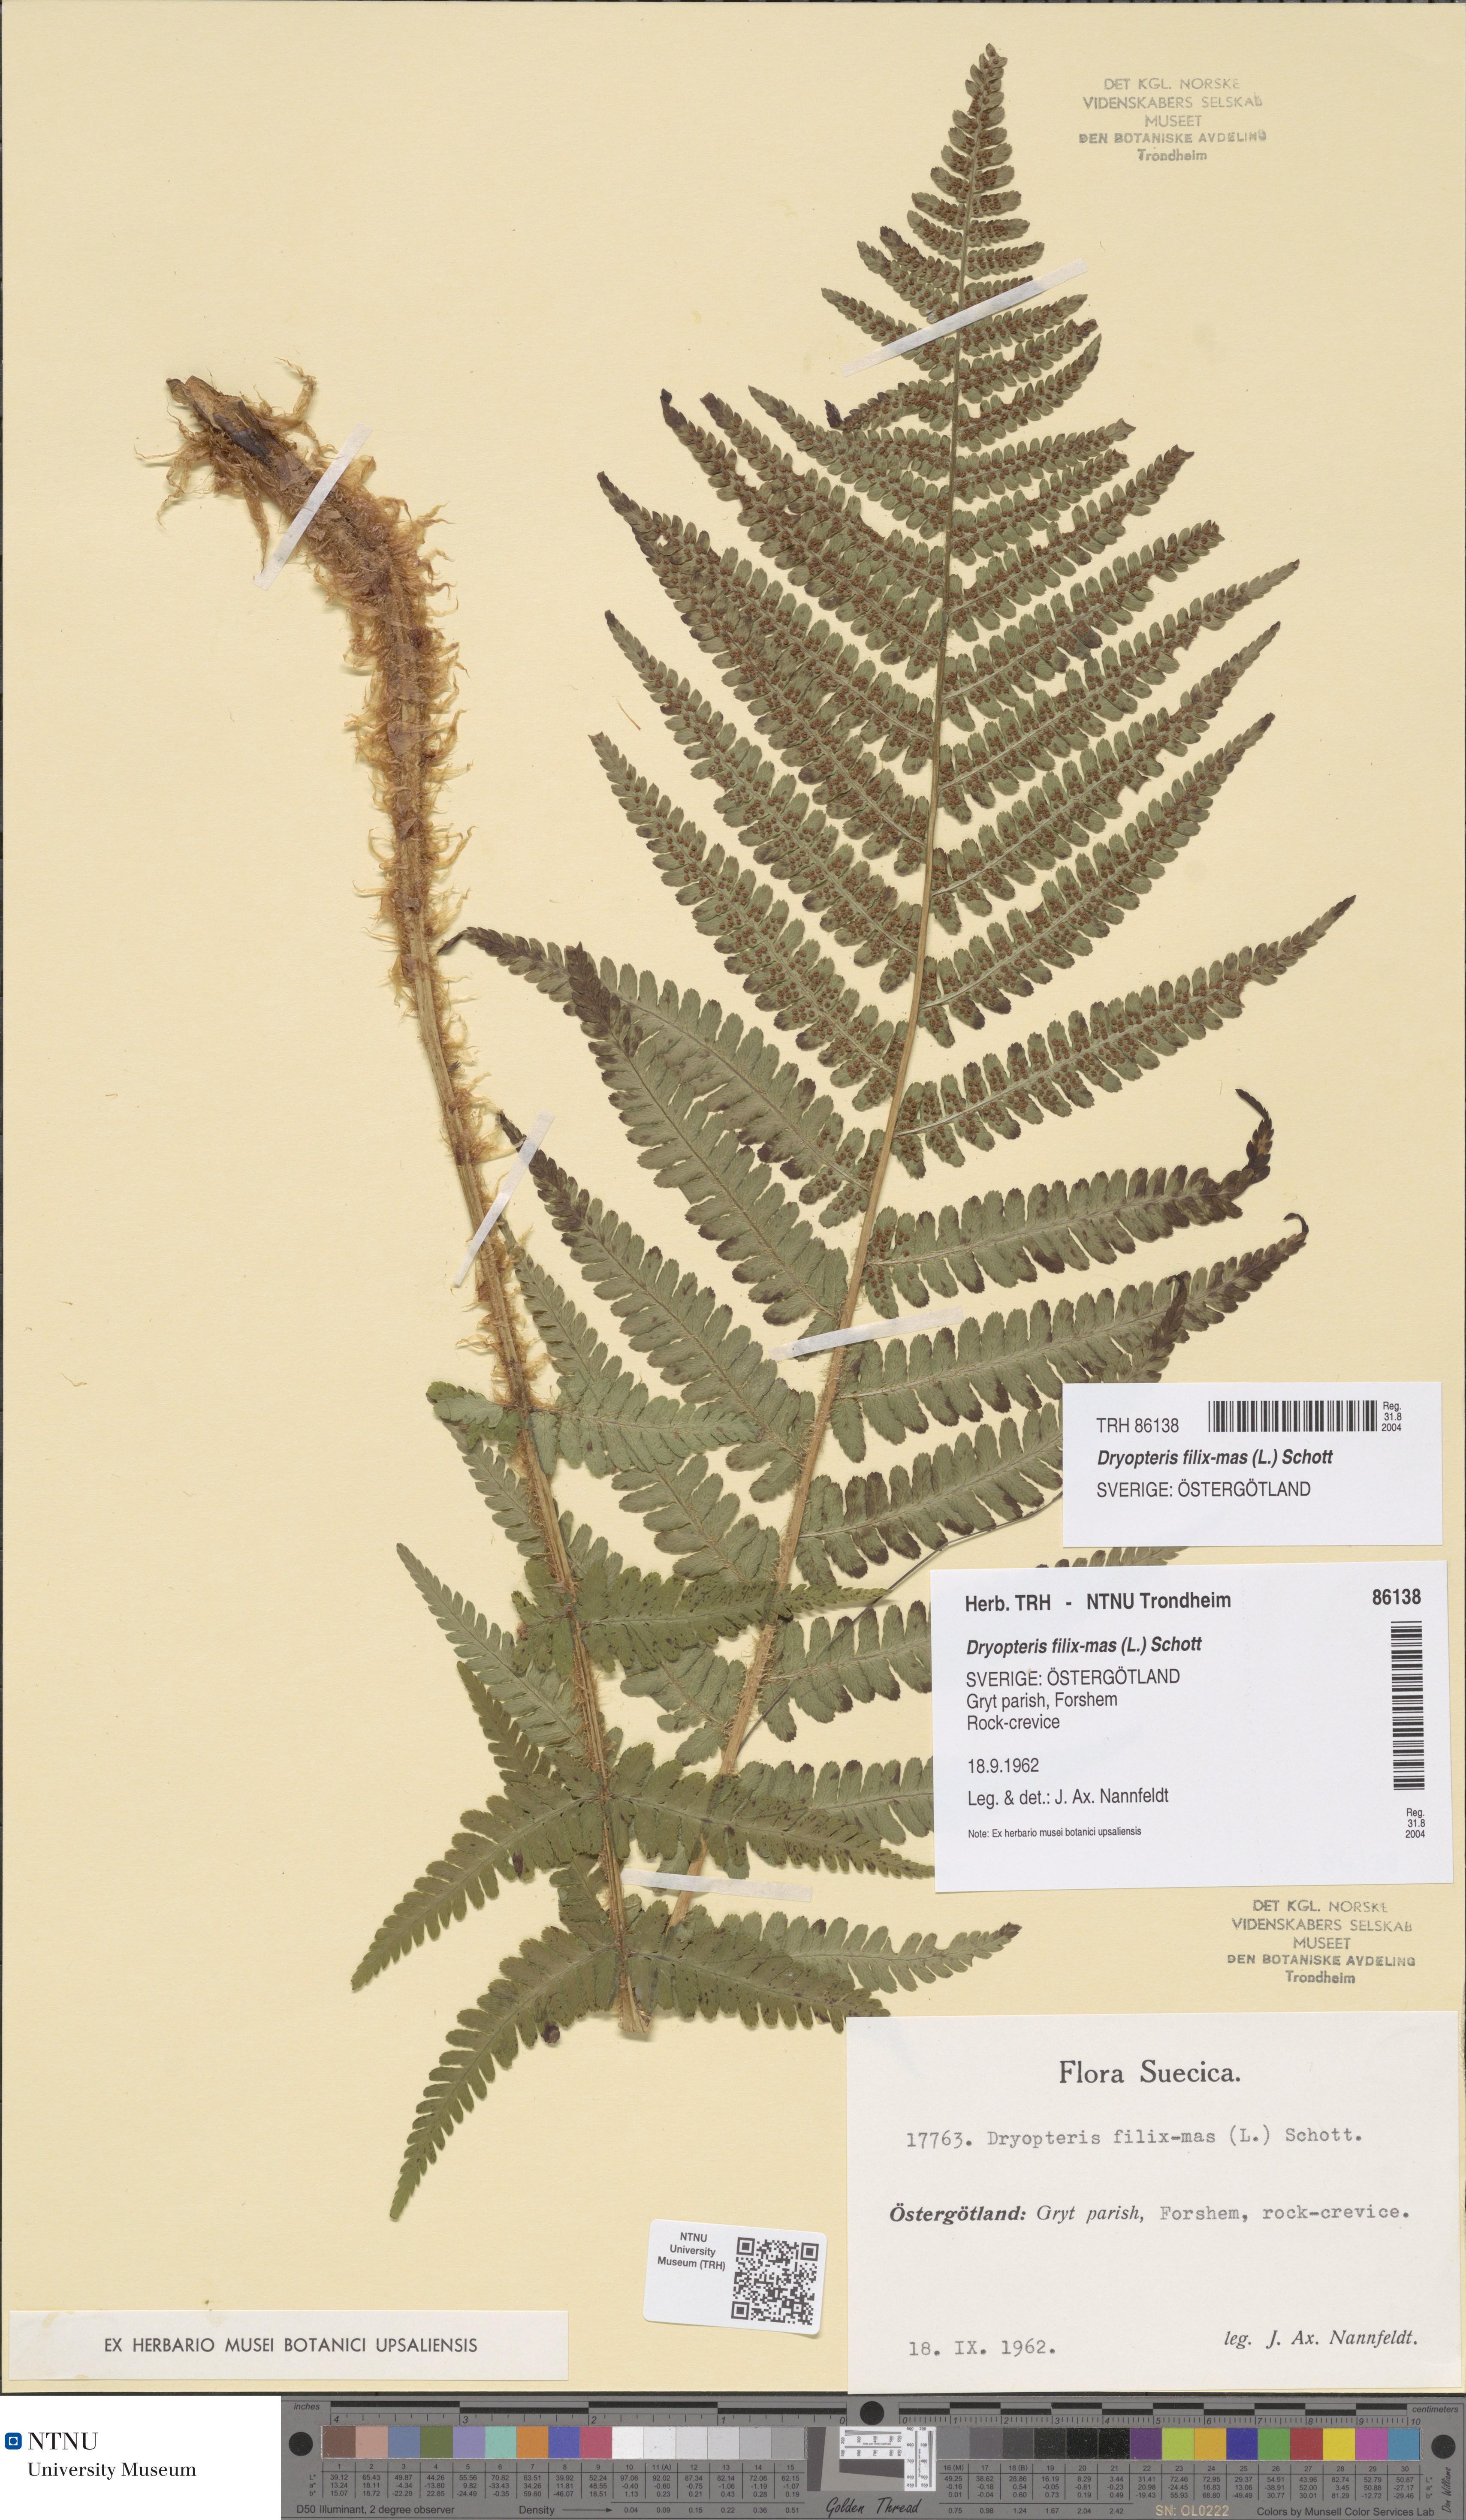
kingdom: Plantae
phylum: Tracheophyta
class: Polypodiopsida
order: Polypodiales
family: Dryopteridaceae
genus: Dryopteris
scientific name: Dryopteris filix-mas
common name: Male fern
